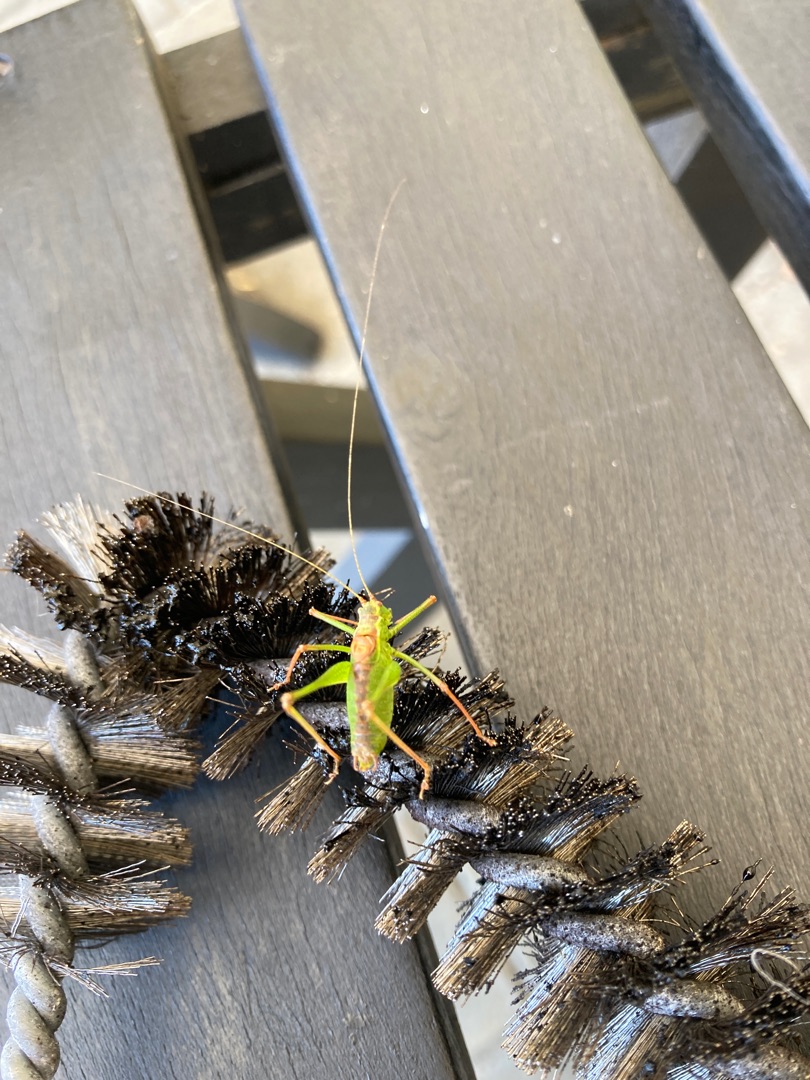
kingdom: Animalia
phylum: Arthropoda
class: Insecta
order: Orthoptera
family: Tettigoniidae
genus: Leptophyes
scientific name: Leptophyes punctatissima
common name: Krumknivgræshoppe
